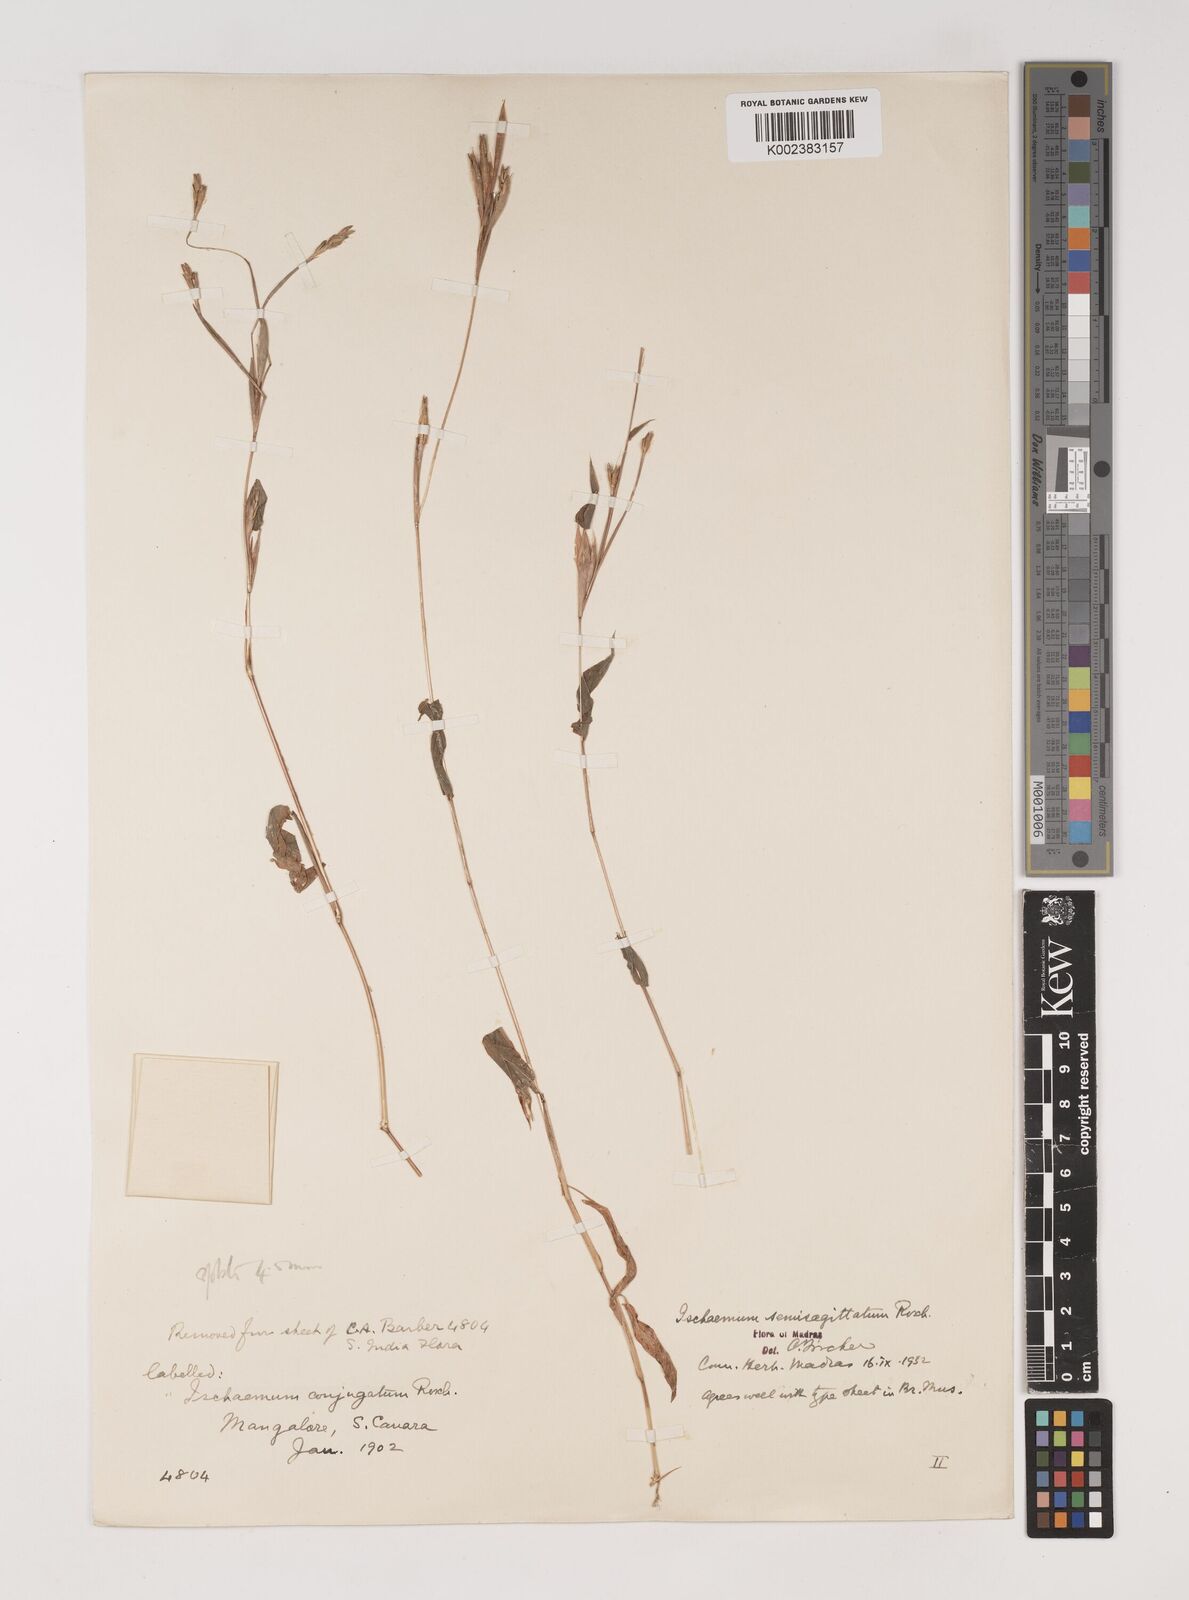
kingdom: Plantae
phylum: Tracheophyta
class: Liliopsida
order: Poales
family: Poaceae
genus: Ischaemum
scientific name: Ischaemum semisagittatum
